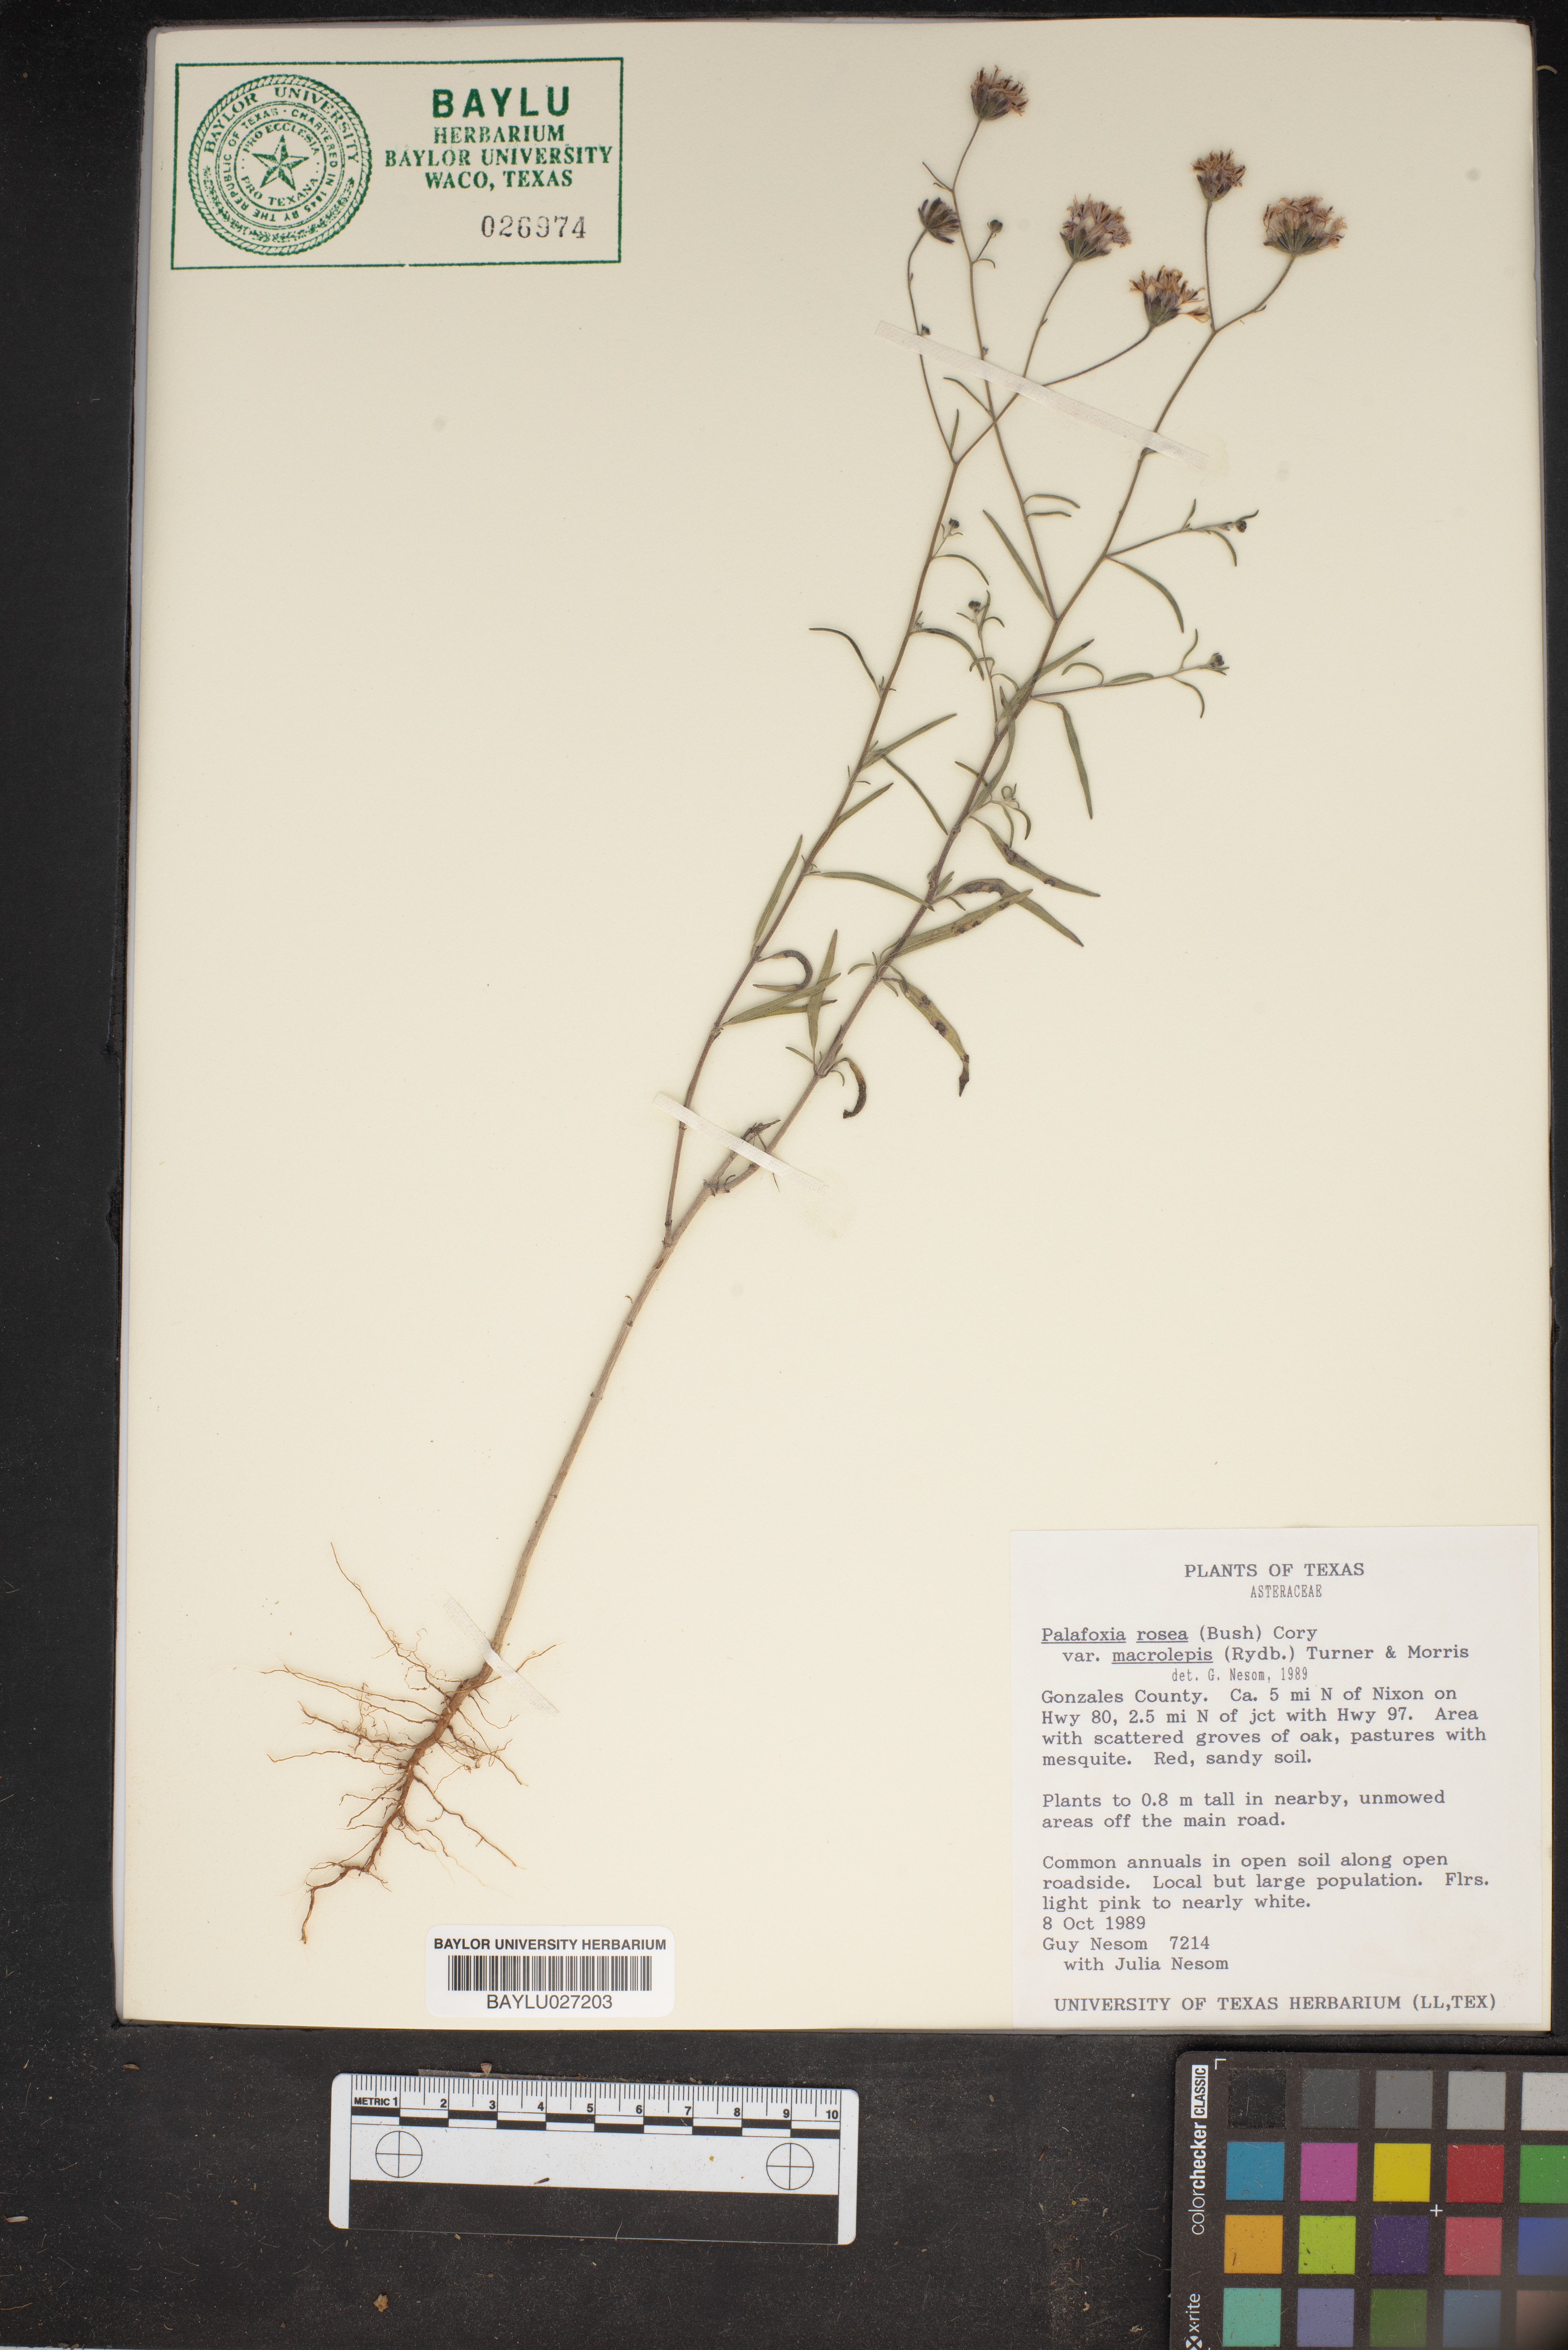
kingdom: Plantae
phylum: Tracheophyta
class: Magnoliopsida
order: Asterales
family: Asteraceae
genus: Palafoxia
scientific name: Palafoxia rosea
